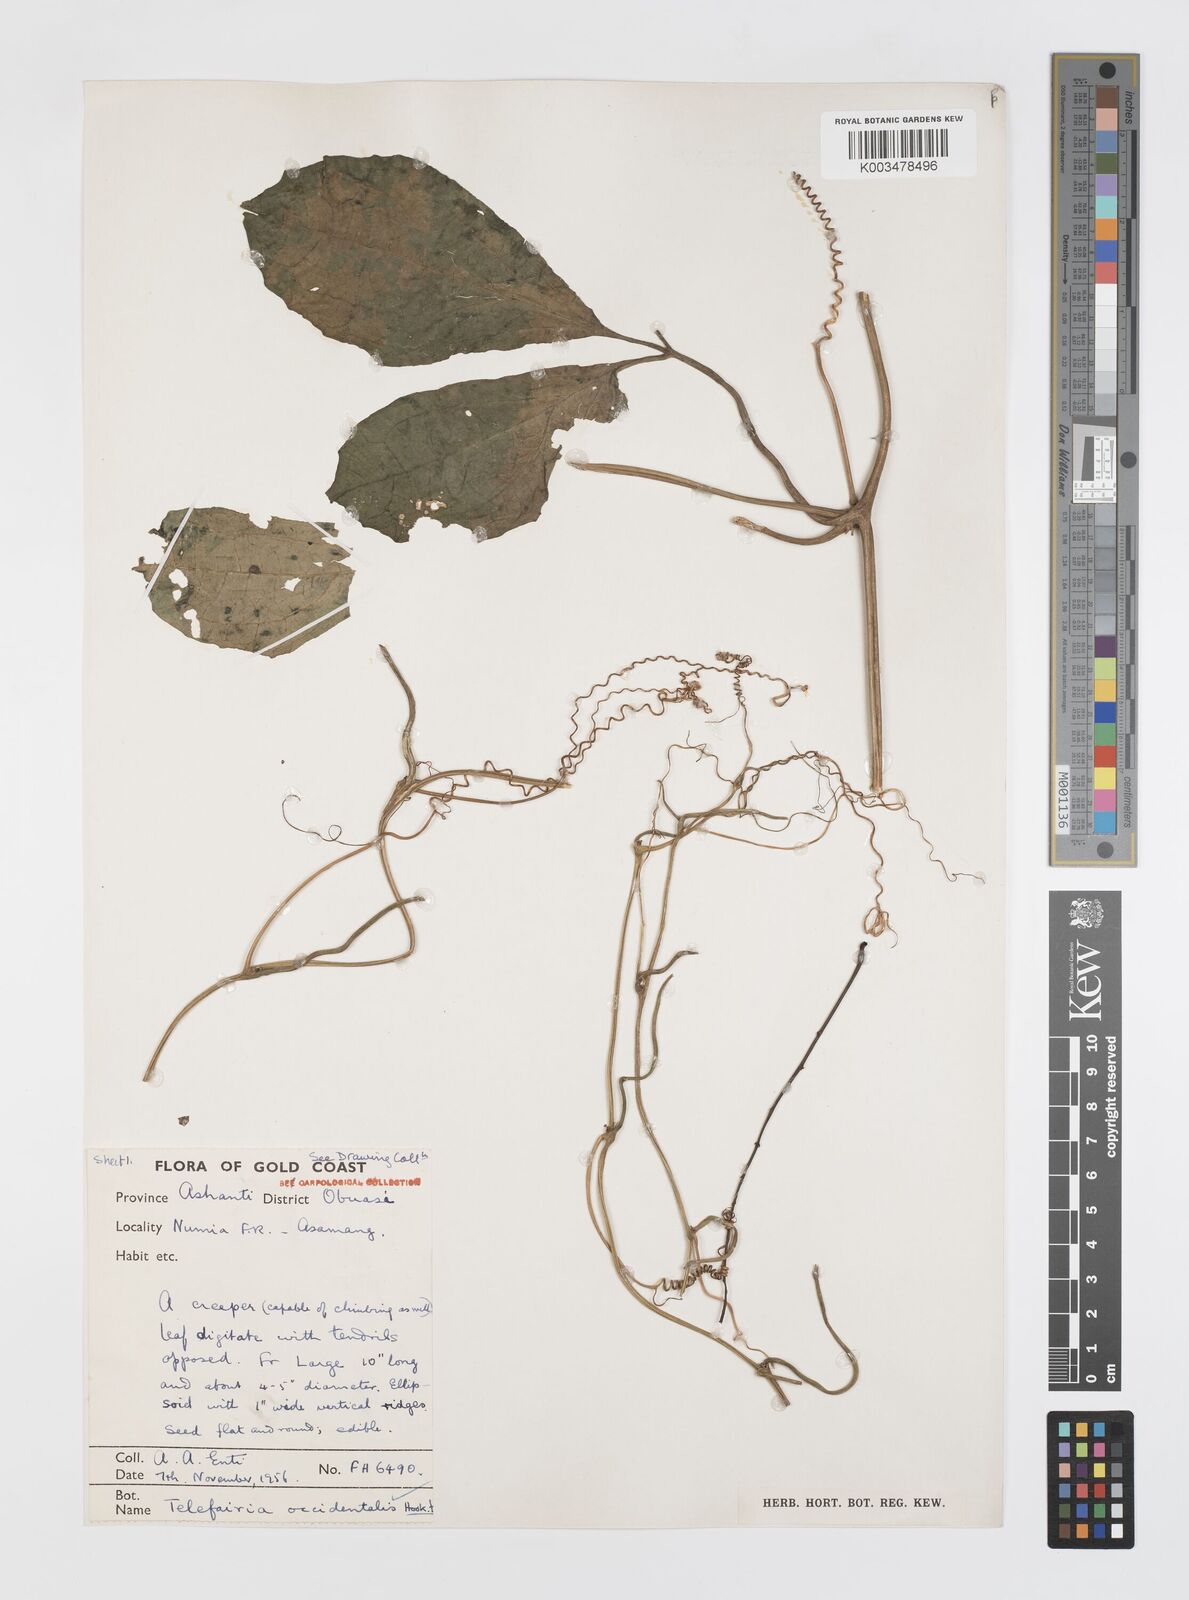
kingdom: Plantae
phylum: Tracheophyta
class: Magnoliopsida
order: Cucurbitales
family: Cucurbitaceae
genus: Telfairia
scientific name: Telfairia occidentalis
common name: Oysternut
